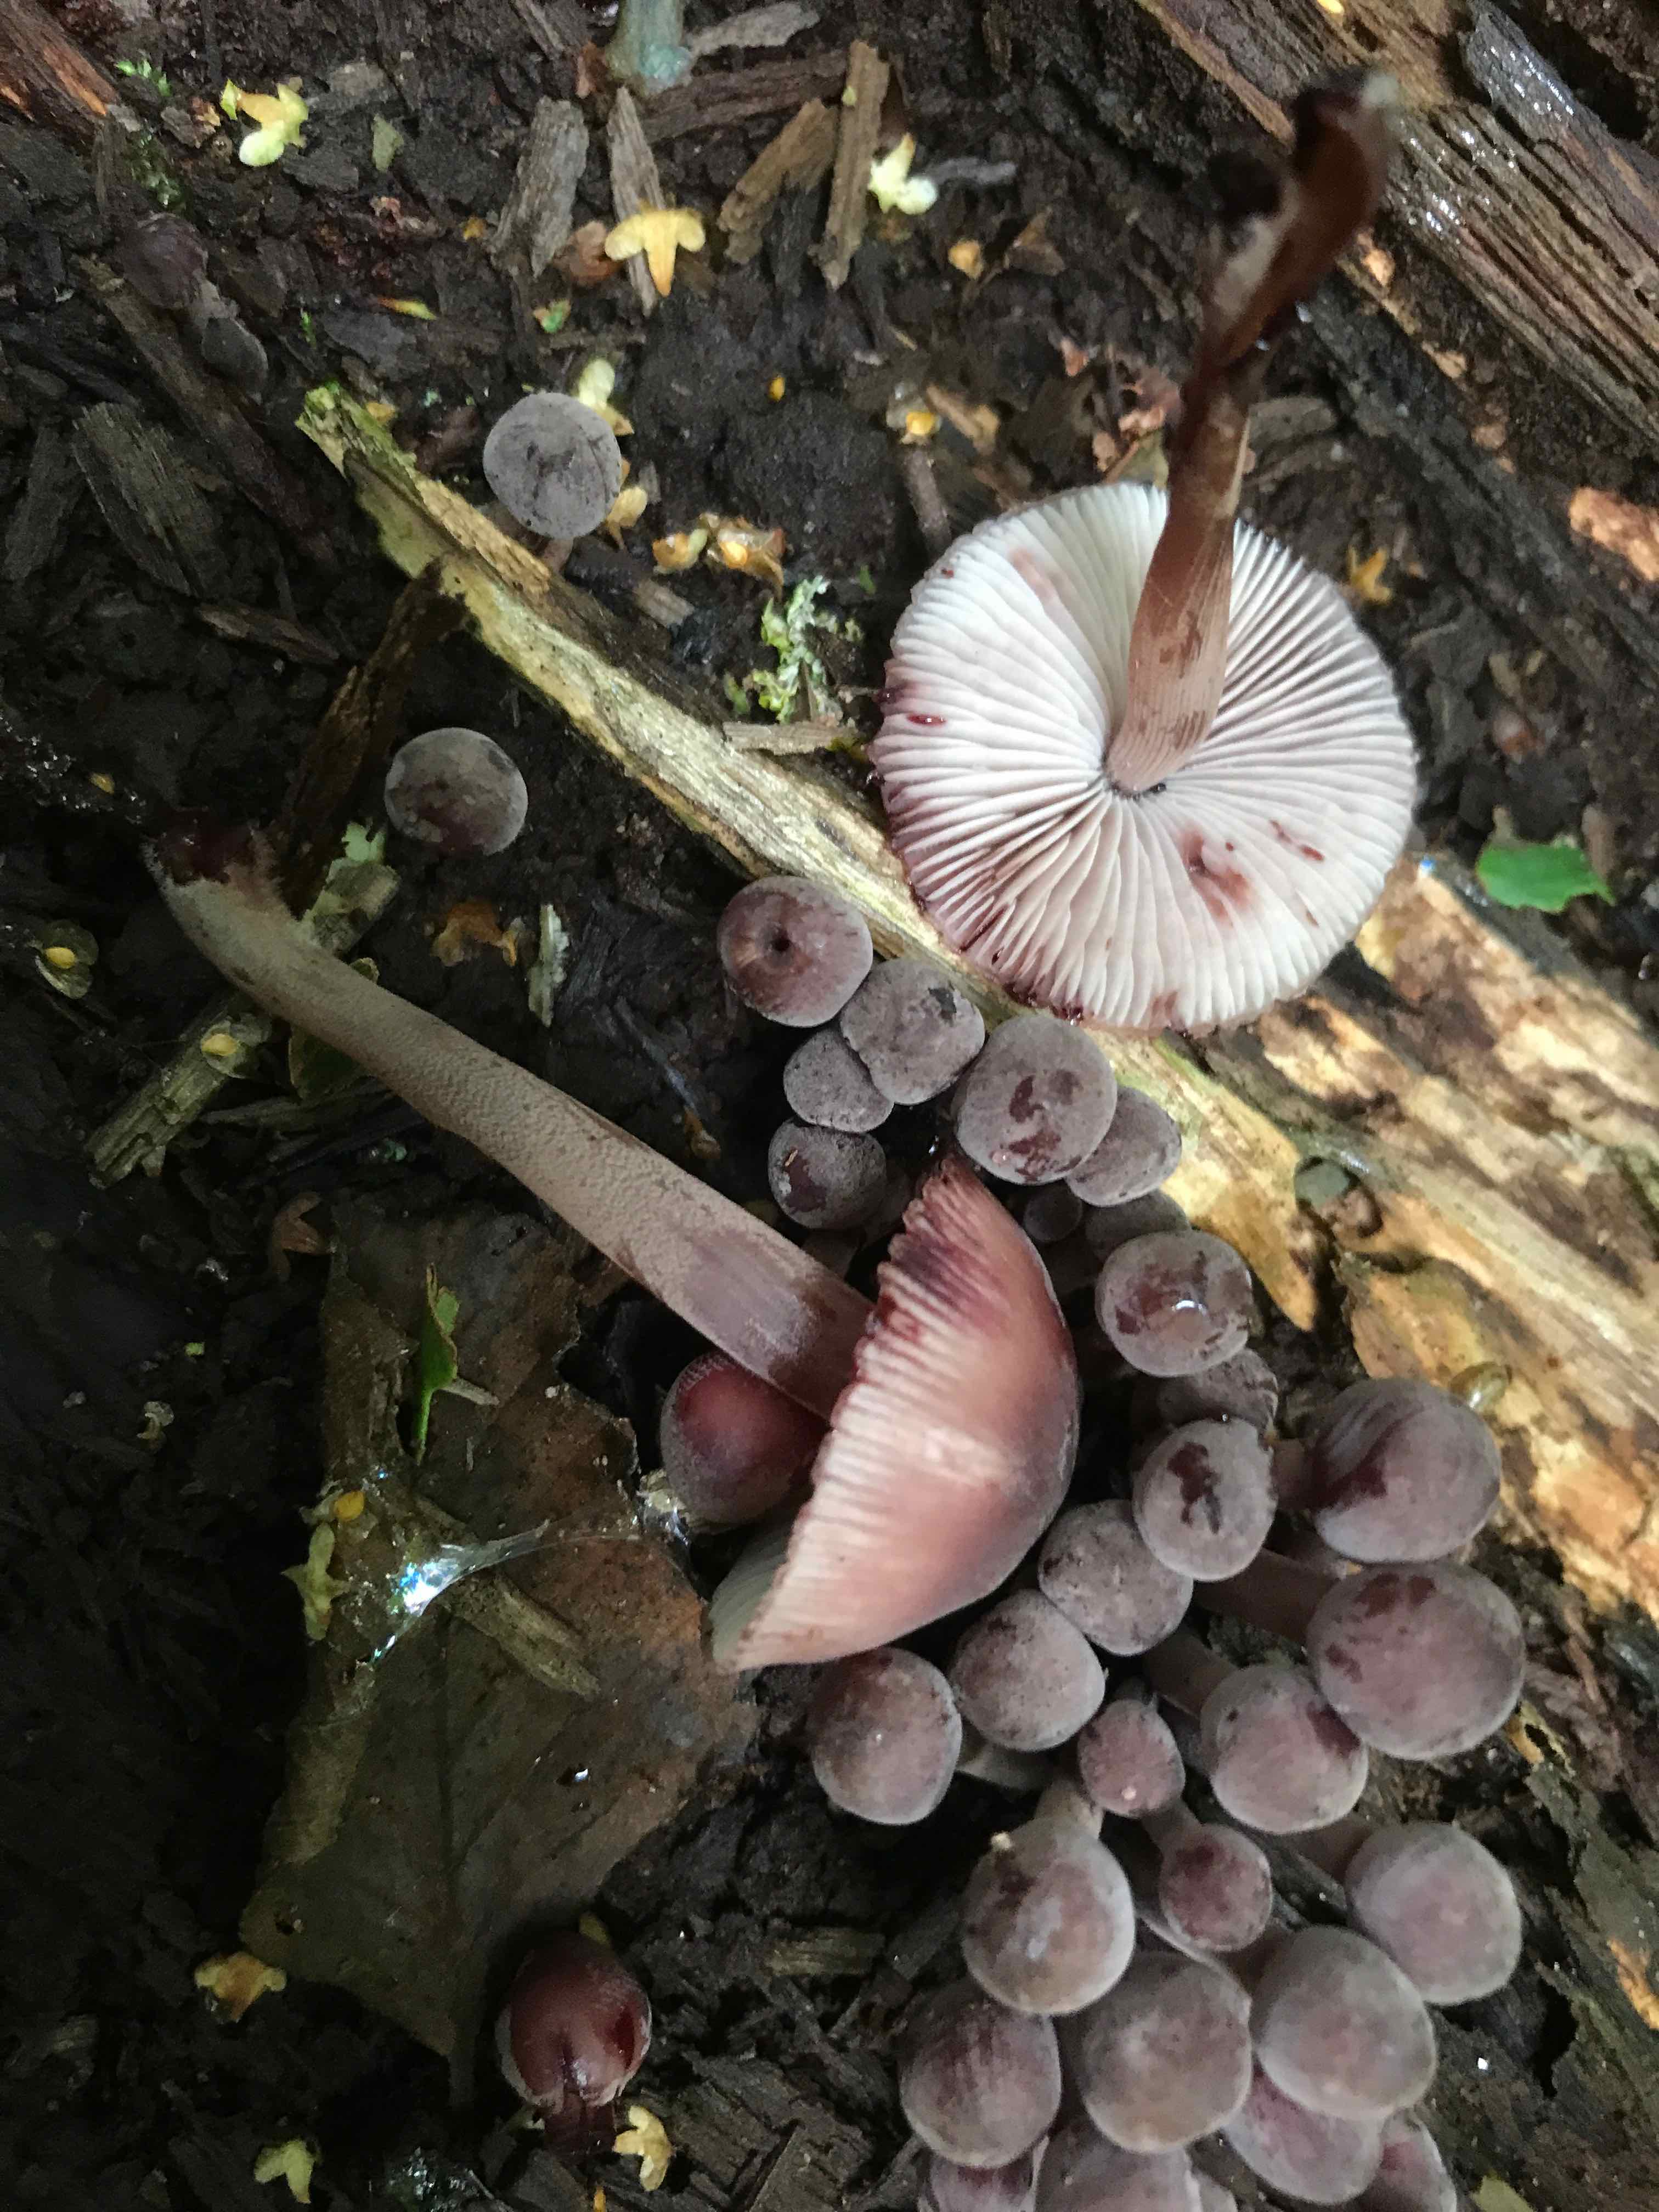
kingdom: Fungi
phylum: Basidiomycota
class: Agaricomycetes
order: Agaricales
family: Mycenaceae
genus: Mycena
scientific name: Mycena haematopus
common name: blødende huesvamp
